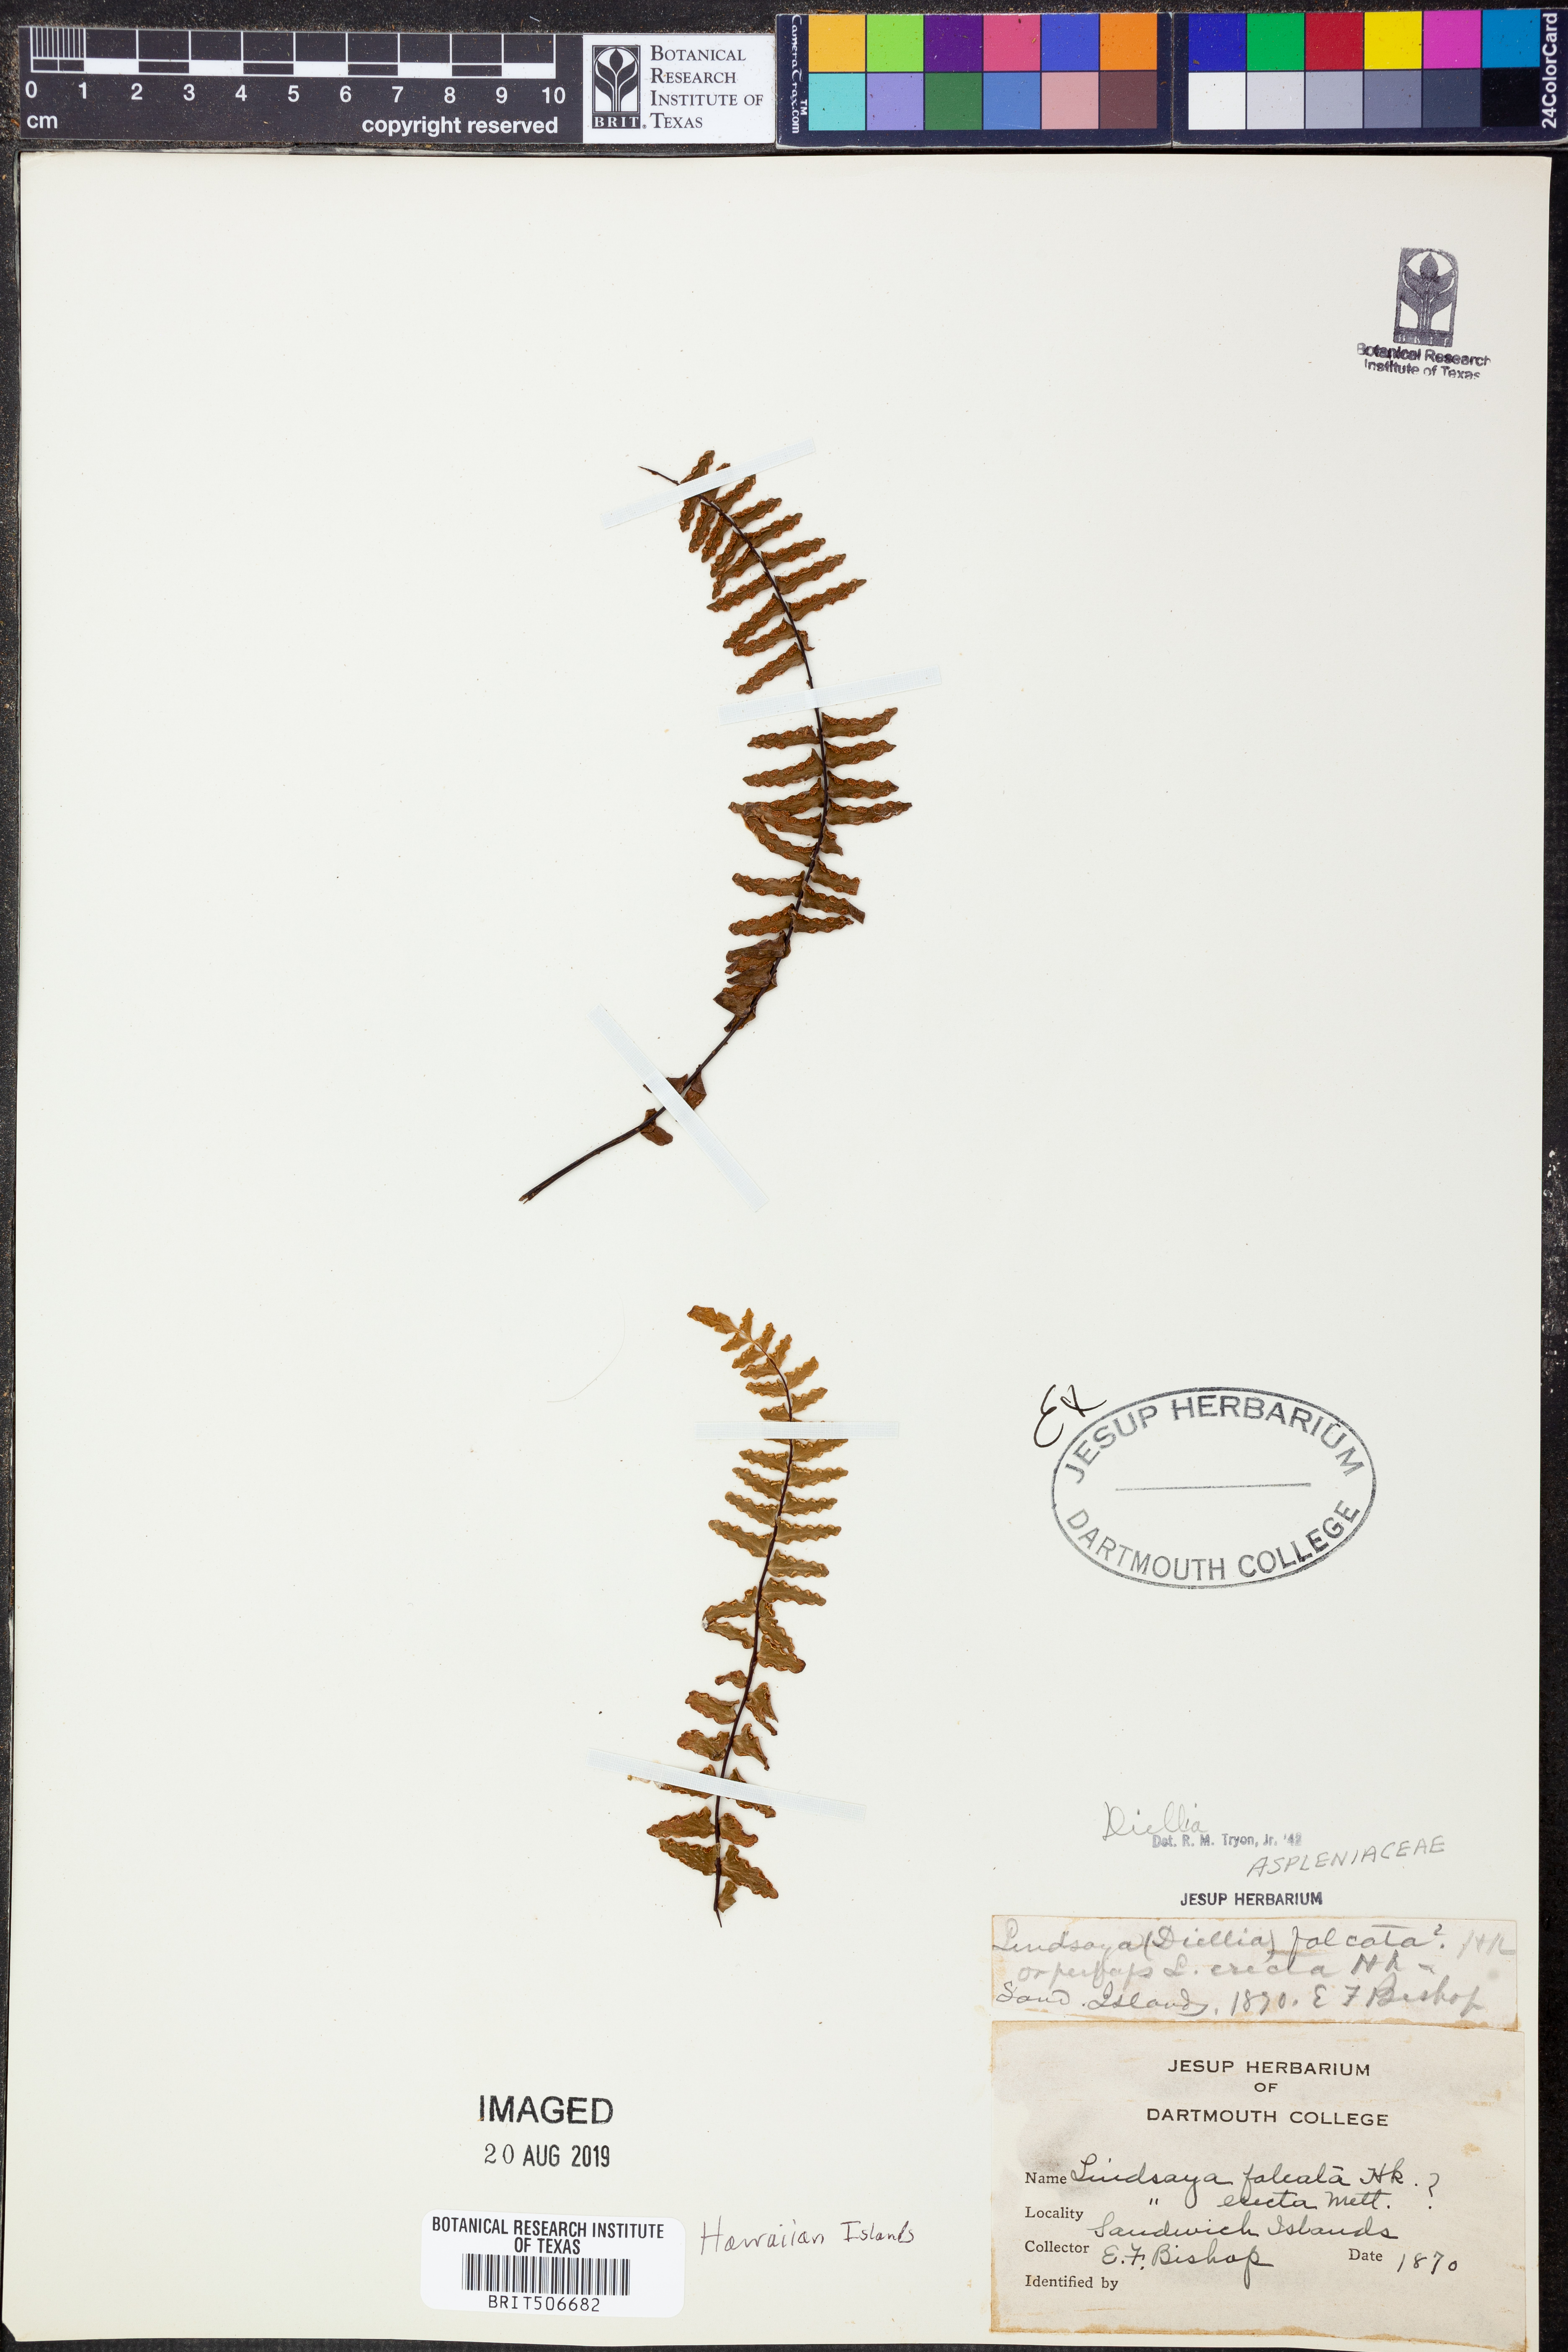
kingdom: Plantae
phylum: Tracheophyta
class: Polypodiopsida
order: Polypodiales
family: Aspleniaceae
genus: Asplenium
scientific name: Asplenium
